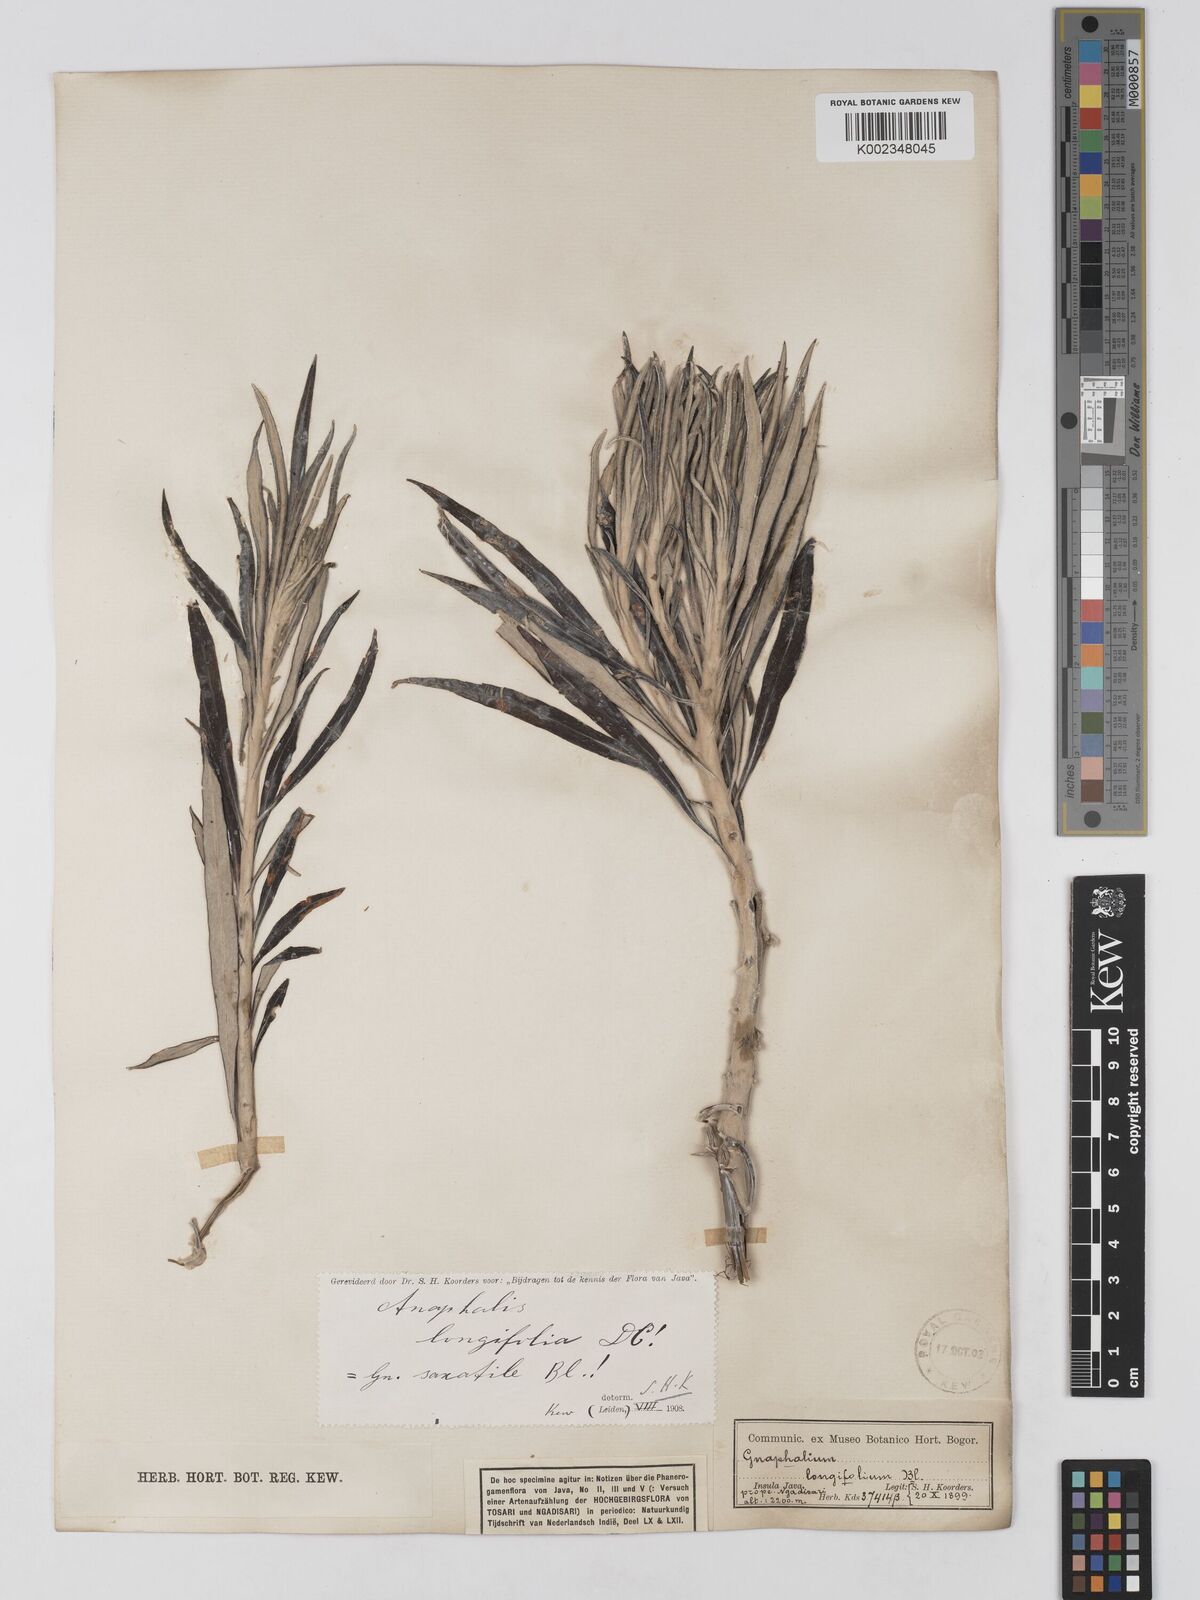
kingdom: Plantae
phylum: Tracheophyta
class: Magnoliopsida
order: Asterales
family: Asteraceae
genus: Anaphalis
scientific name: Anaphalis longifolia
